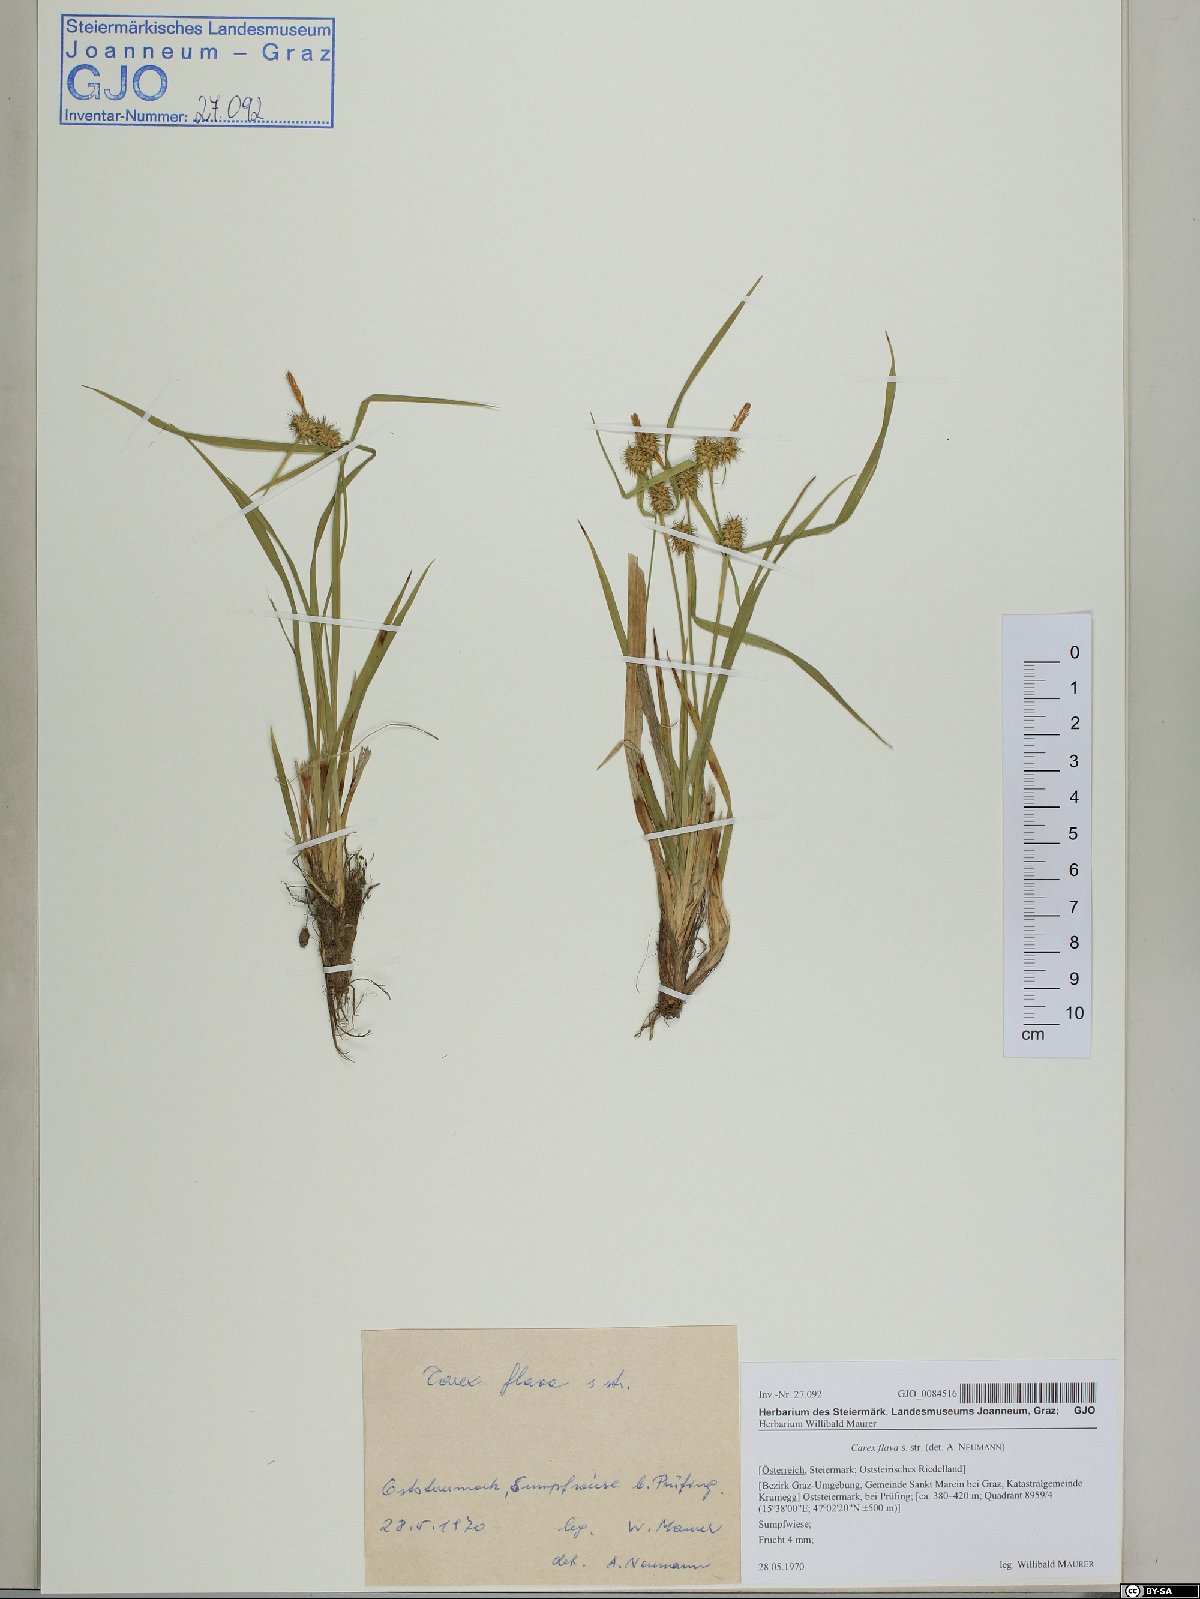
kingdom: Plantae
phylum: Tracheophyta
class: Liliopsida
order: Poales
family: Cyperaceae
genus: Carex
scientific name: Carex flava
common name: Large yellow-sedge
